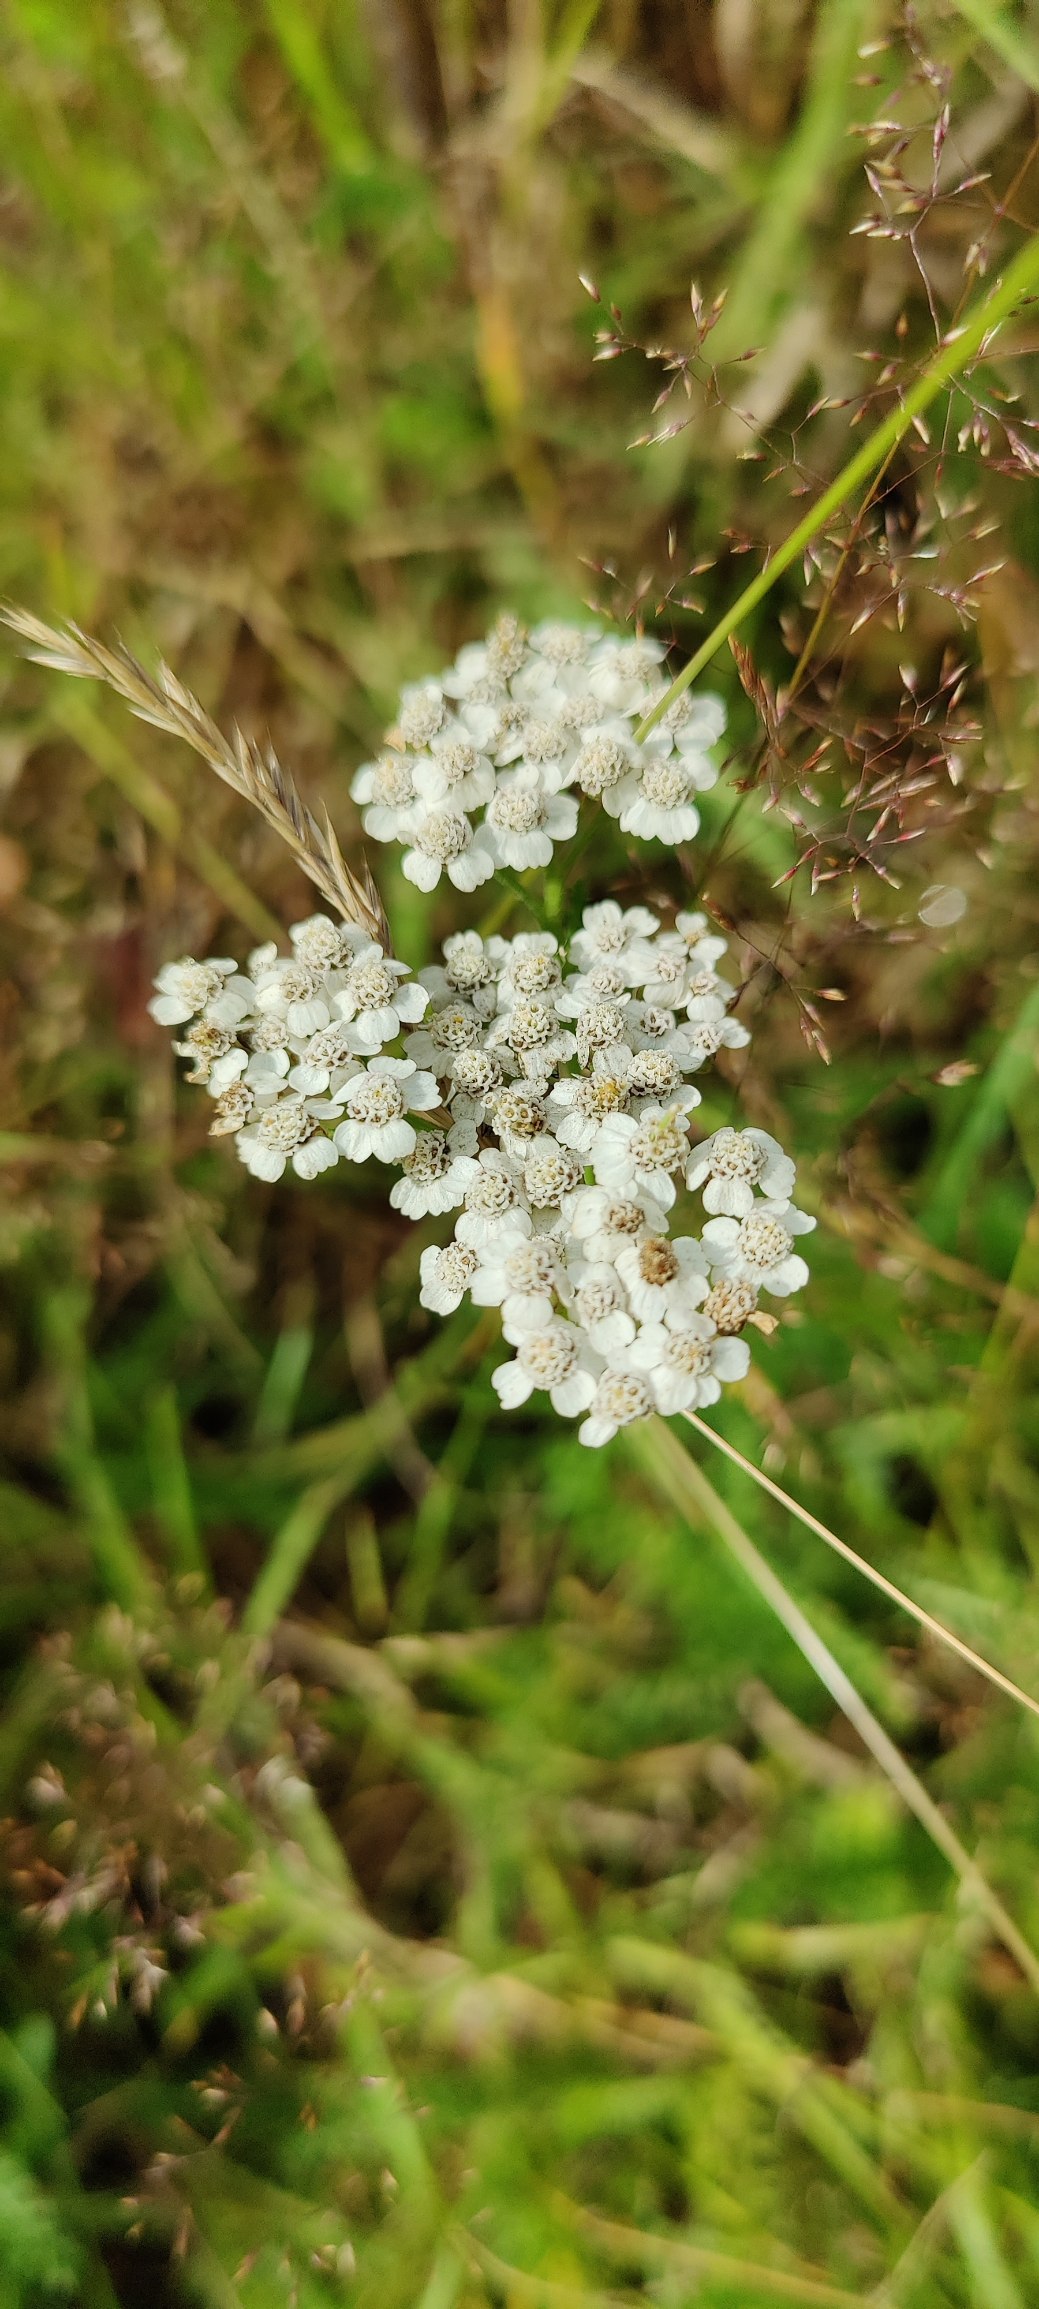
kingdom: Plantae
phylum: Tracheophyta
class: Magnoliopsida
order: Asterales
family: Asteraceae
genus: Achillea
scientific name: Achillea millefolium
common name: Almindelig røllike
